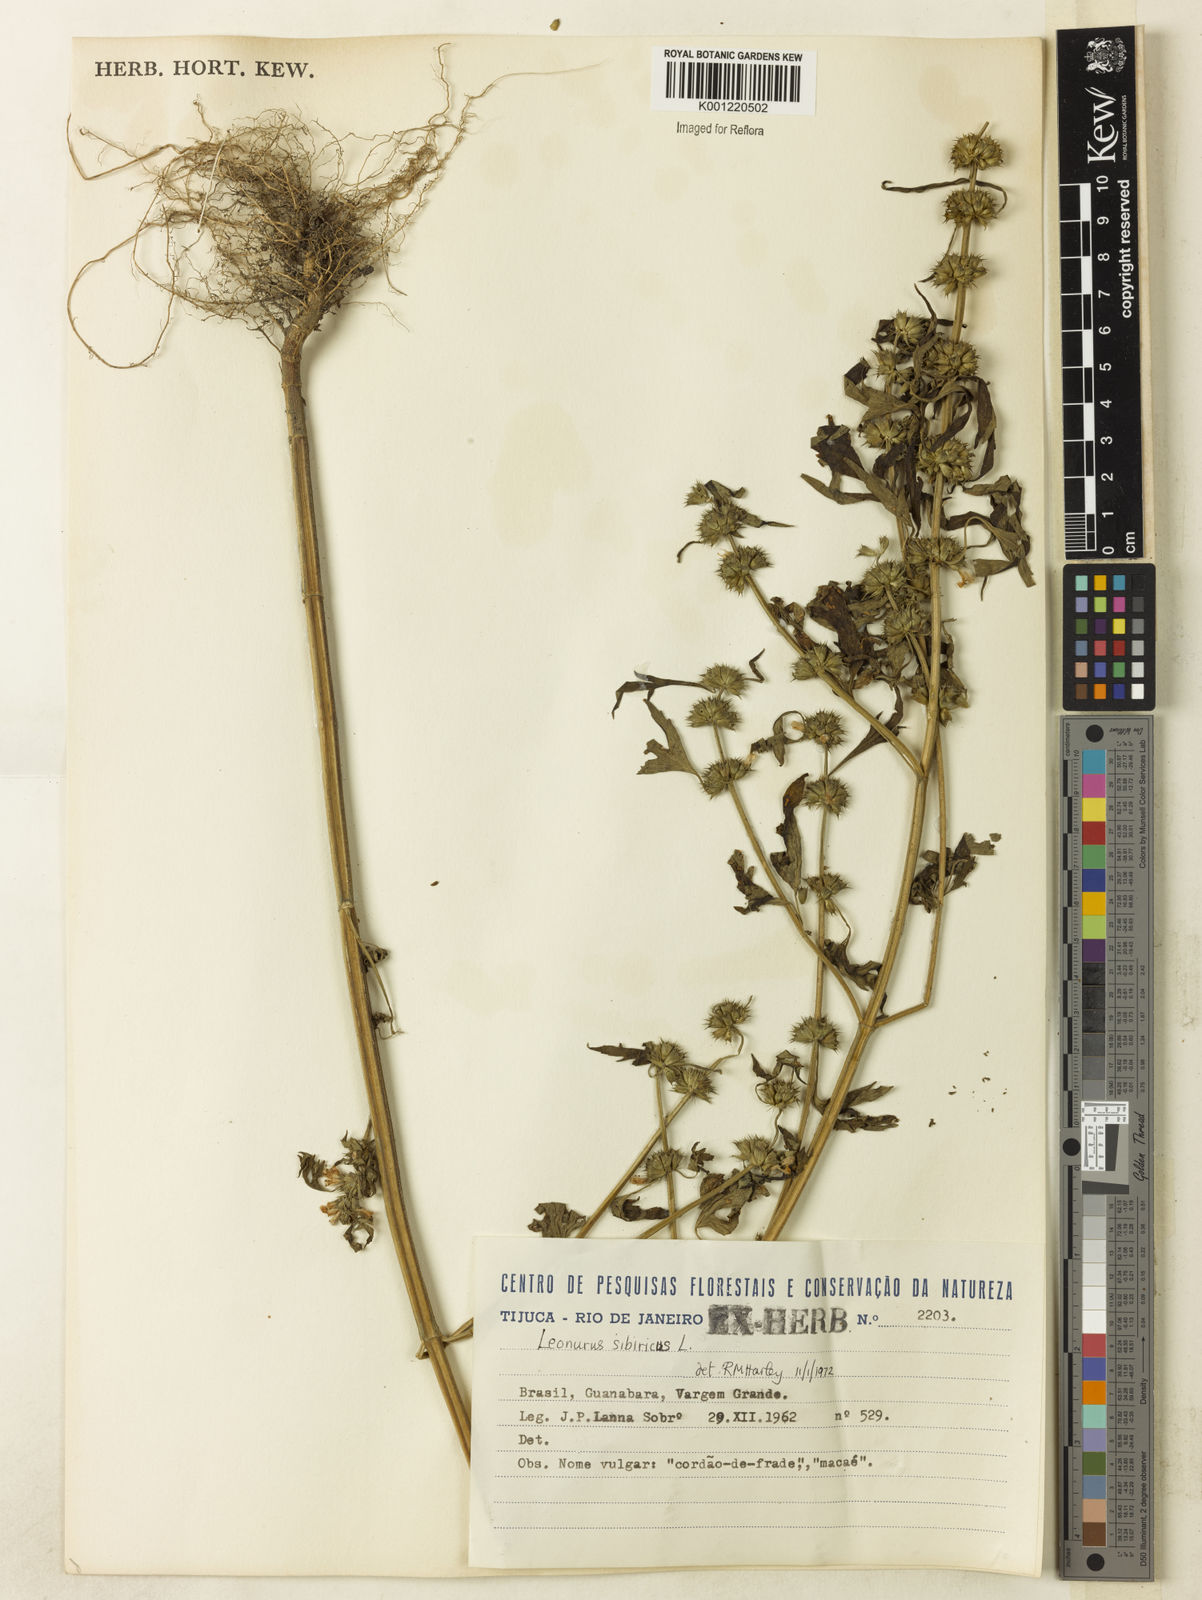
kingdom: Plantae
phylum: Tracheophyta
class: Magnoliopsida
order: Lamiales
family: Lamiaceae
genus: Leonurus
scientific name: Leonurus japonicus
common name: Honeyweed
